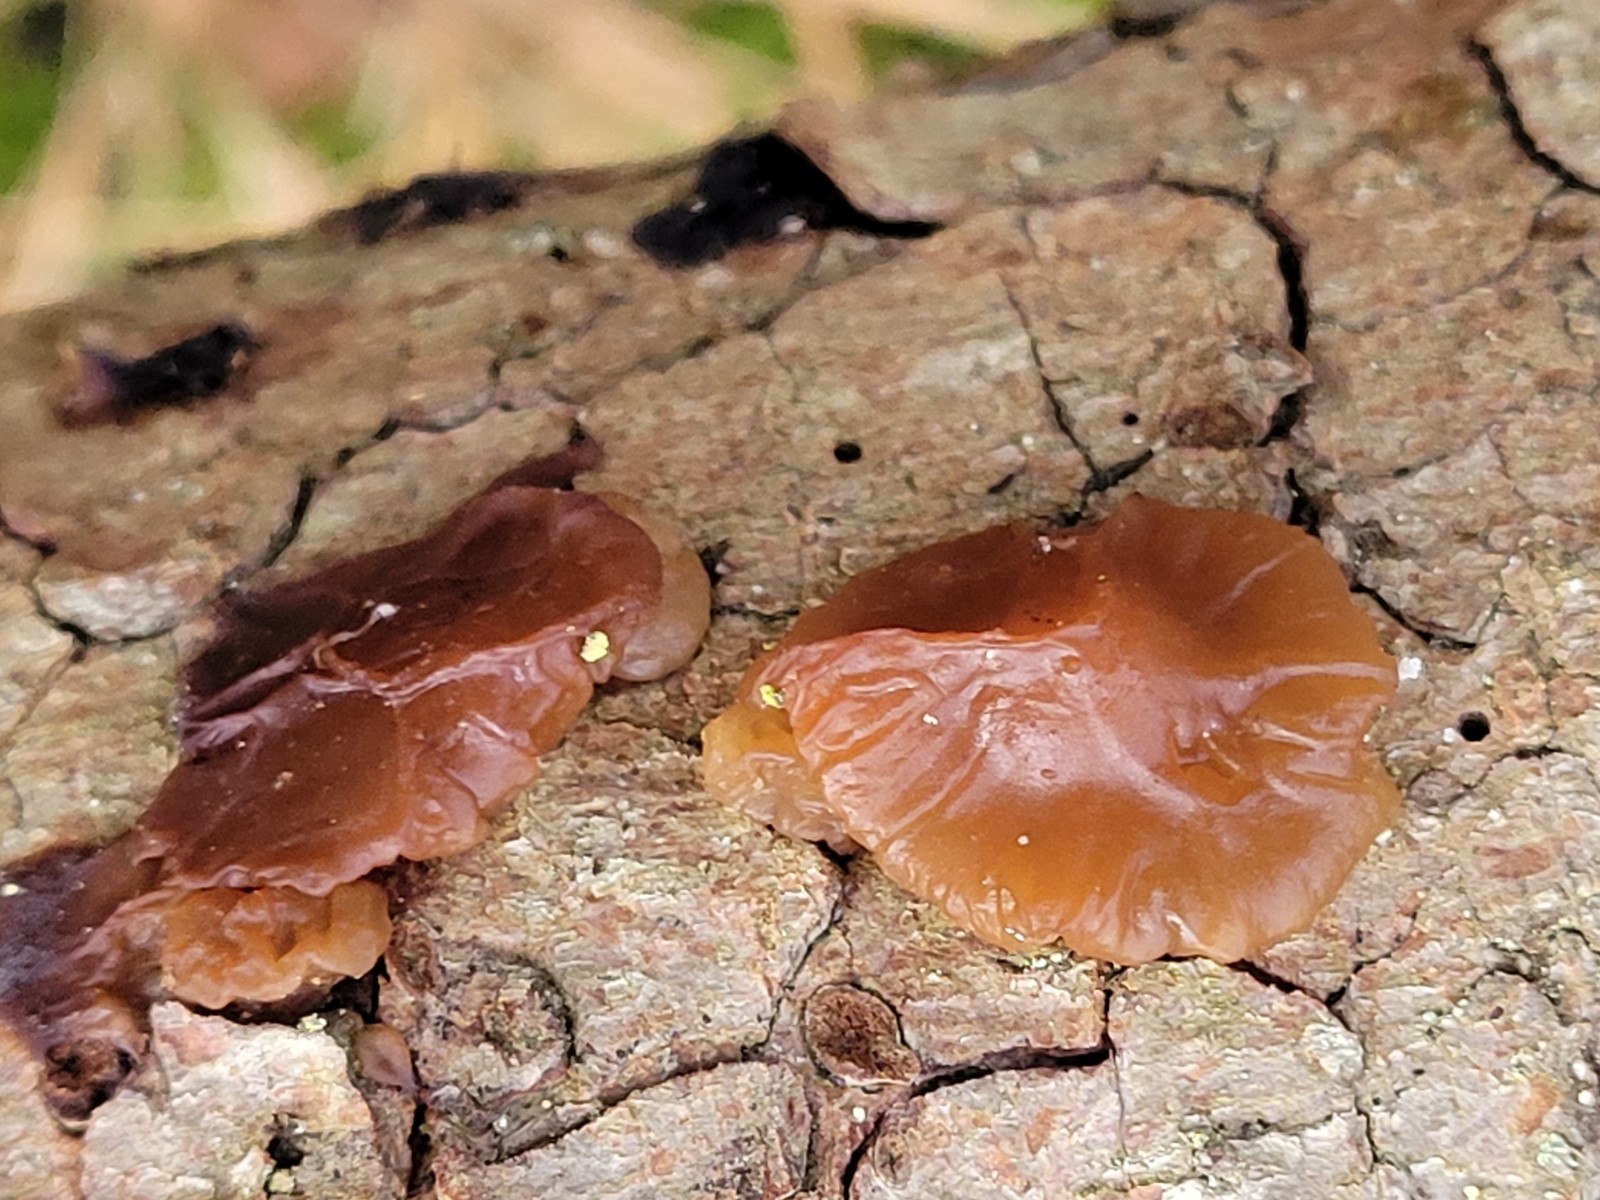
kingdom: Fungi
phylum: Basidiomycota
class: Agaricomycetes
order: Auriculariales
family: Auriculariaceae
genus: Exidia
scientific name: Exidia saccharina
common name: kandis-bævretop
